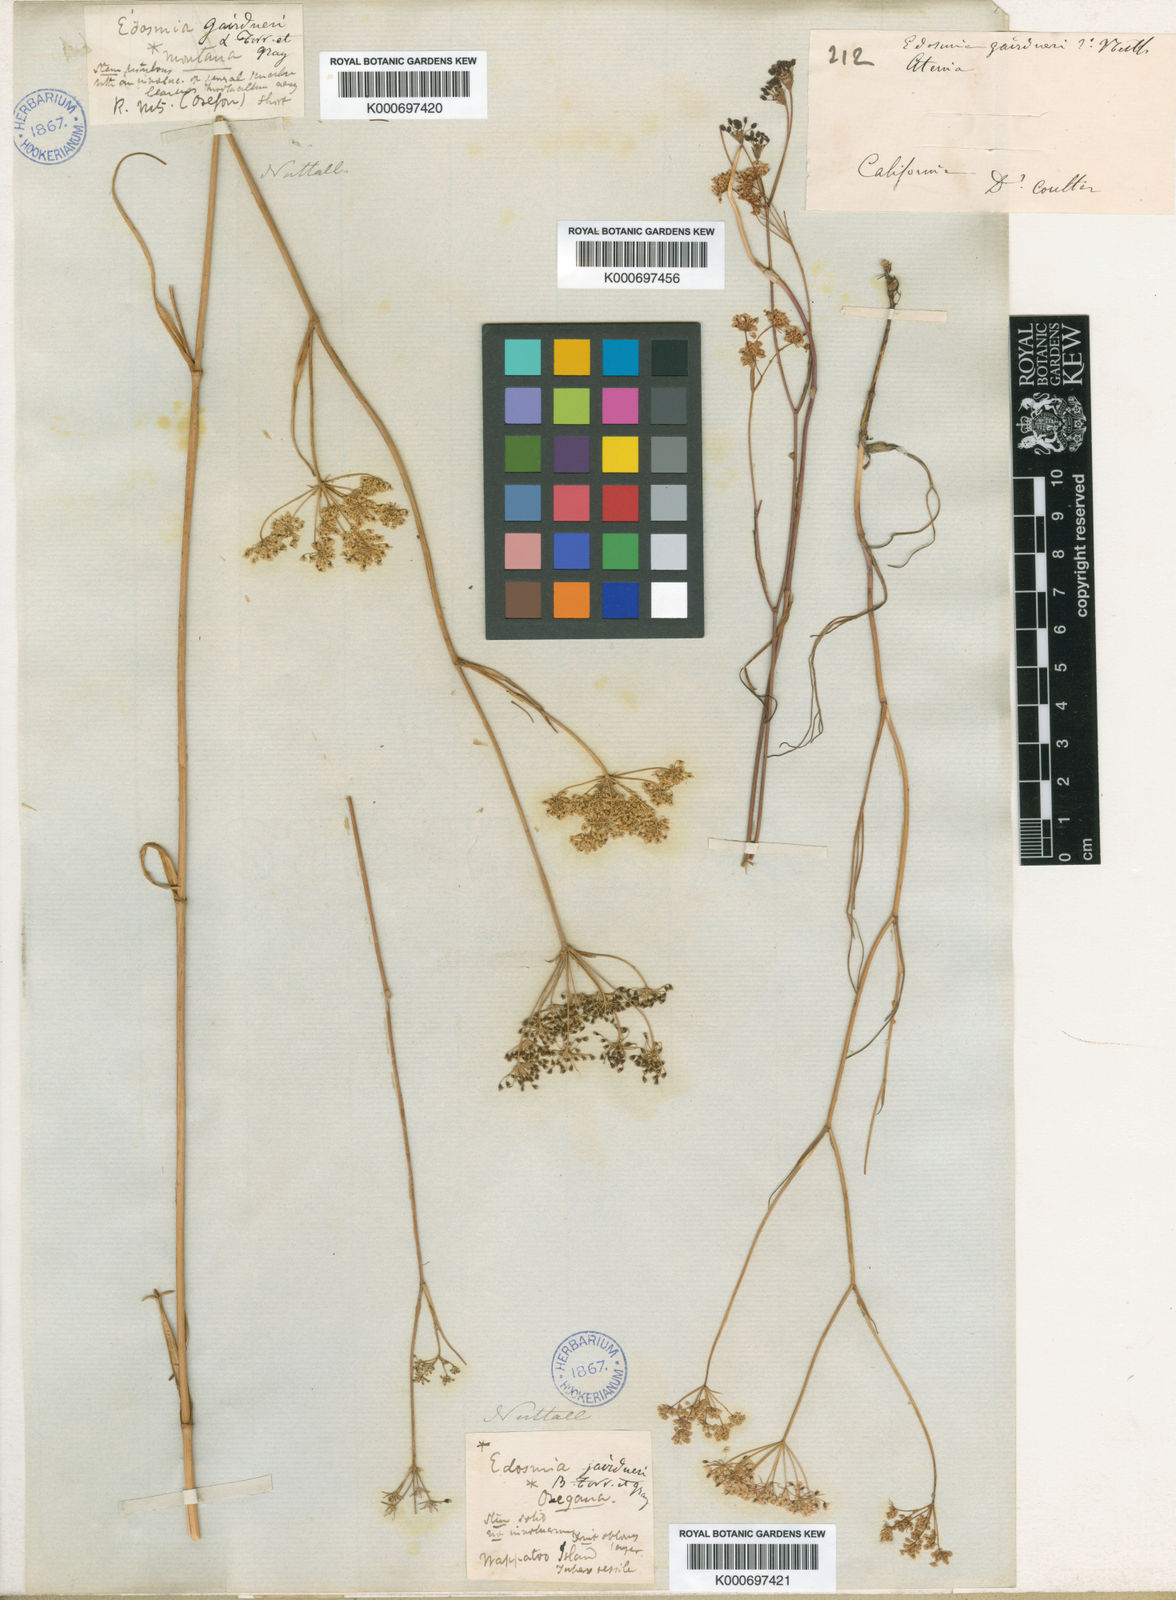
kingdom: Plantae
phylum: Tracheophyta
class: Magnoliopsida
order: Apiales
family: Apiaceae
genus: Perideridia
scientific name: Perideridia oregana
